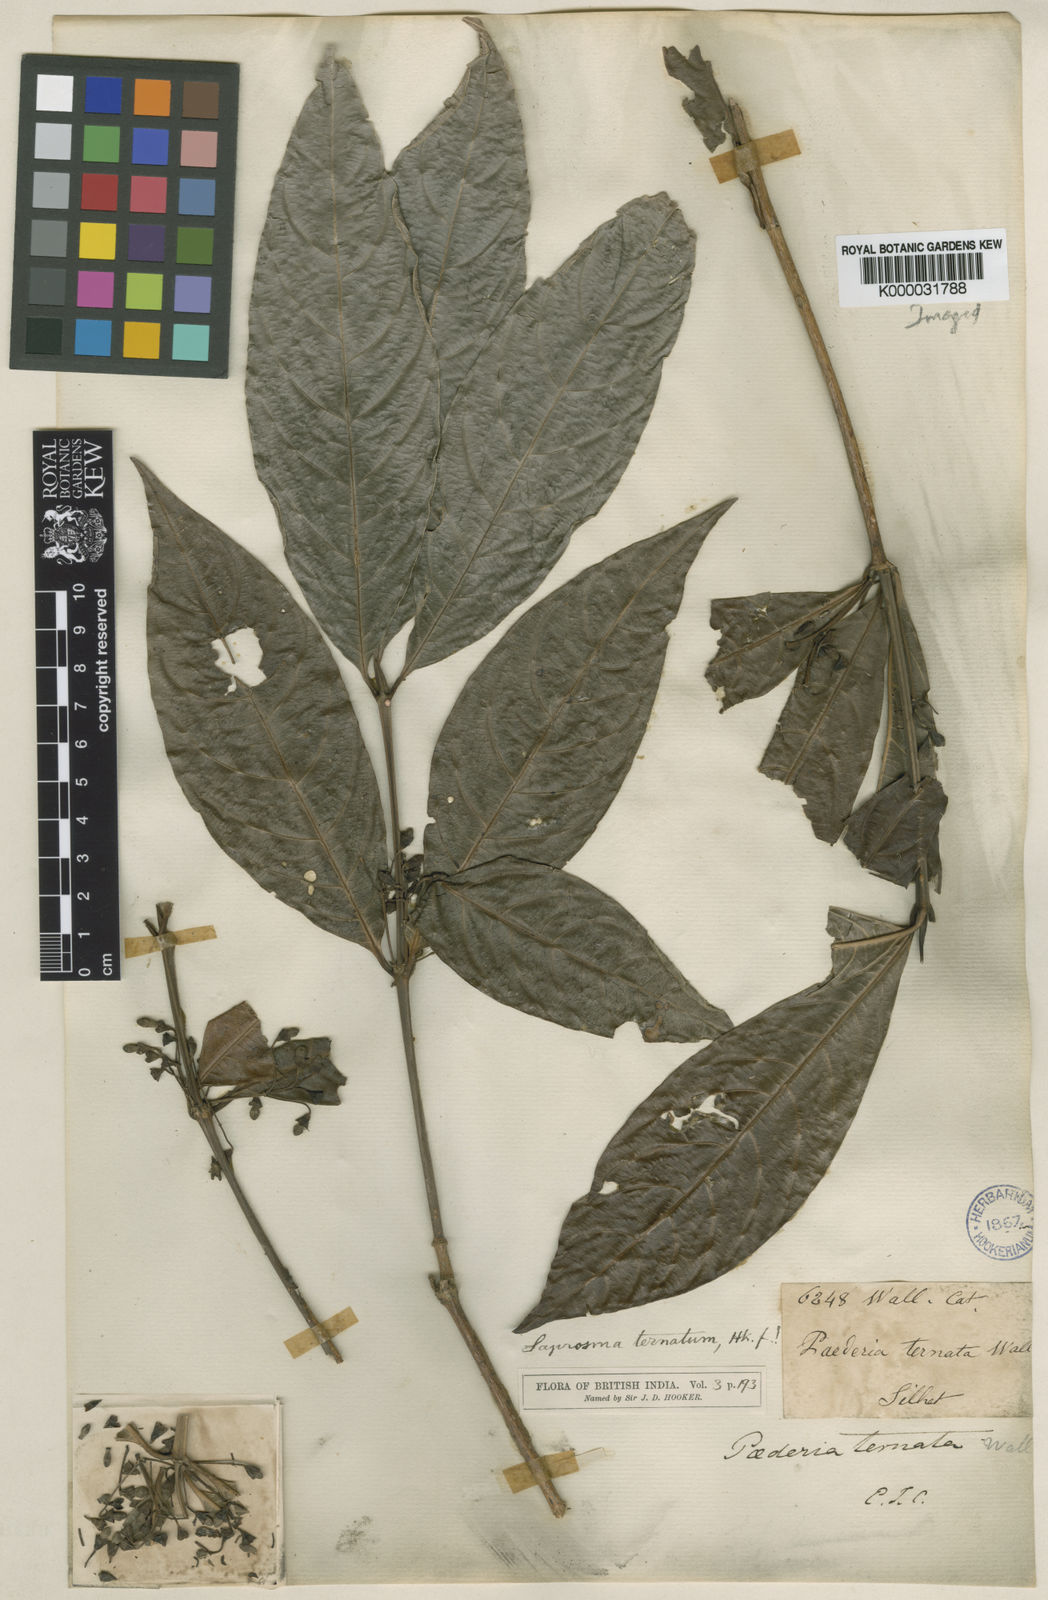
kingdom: Plantae
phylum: Tracheophyta
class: Magnoliopsida
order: Gentianales
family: Rubiaceae
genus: Saprosma
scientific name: Saprosma ternata
